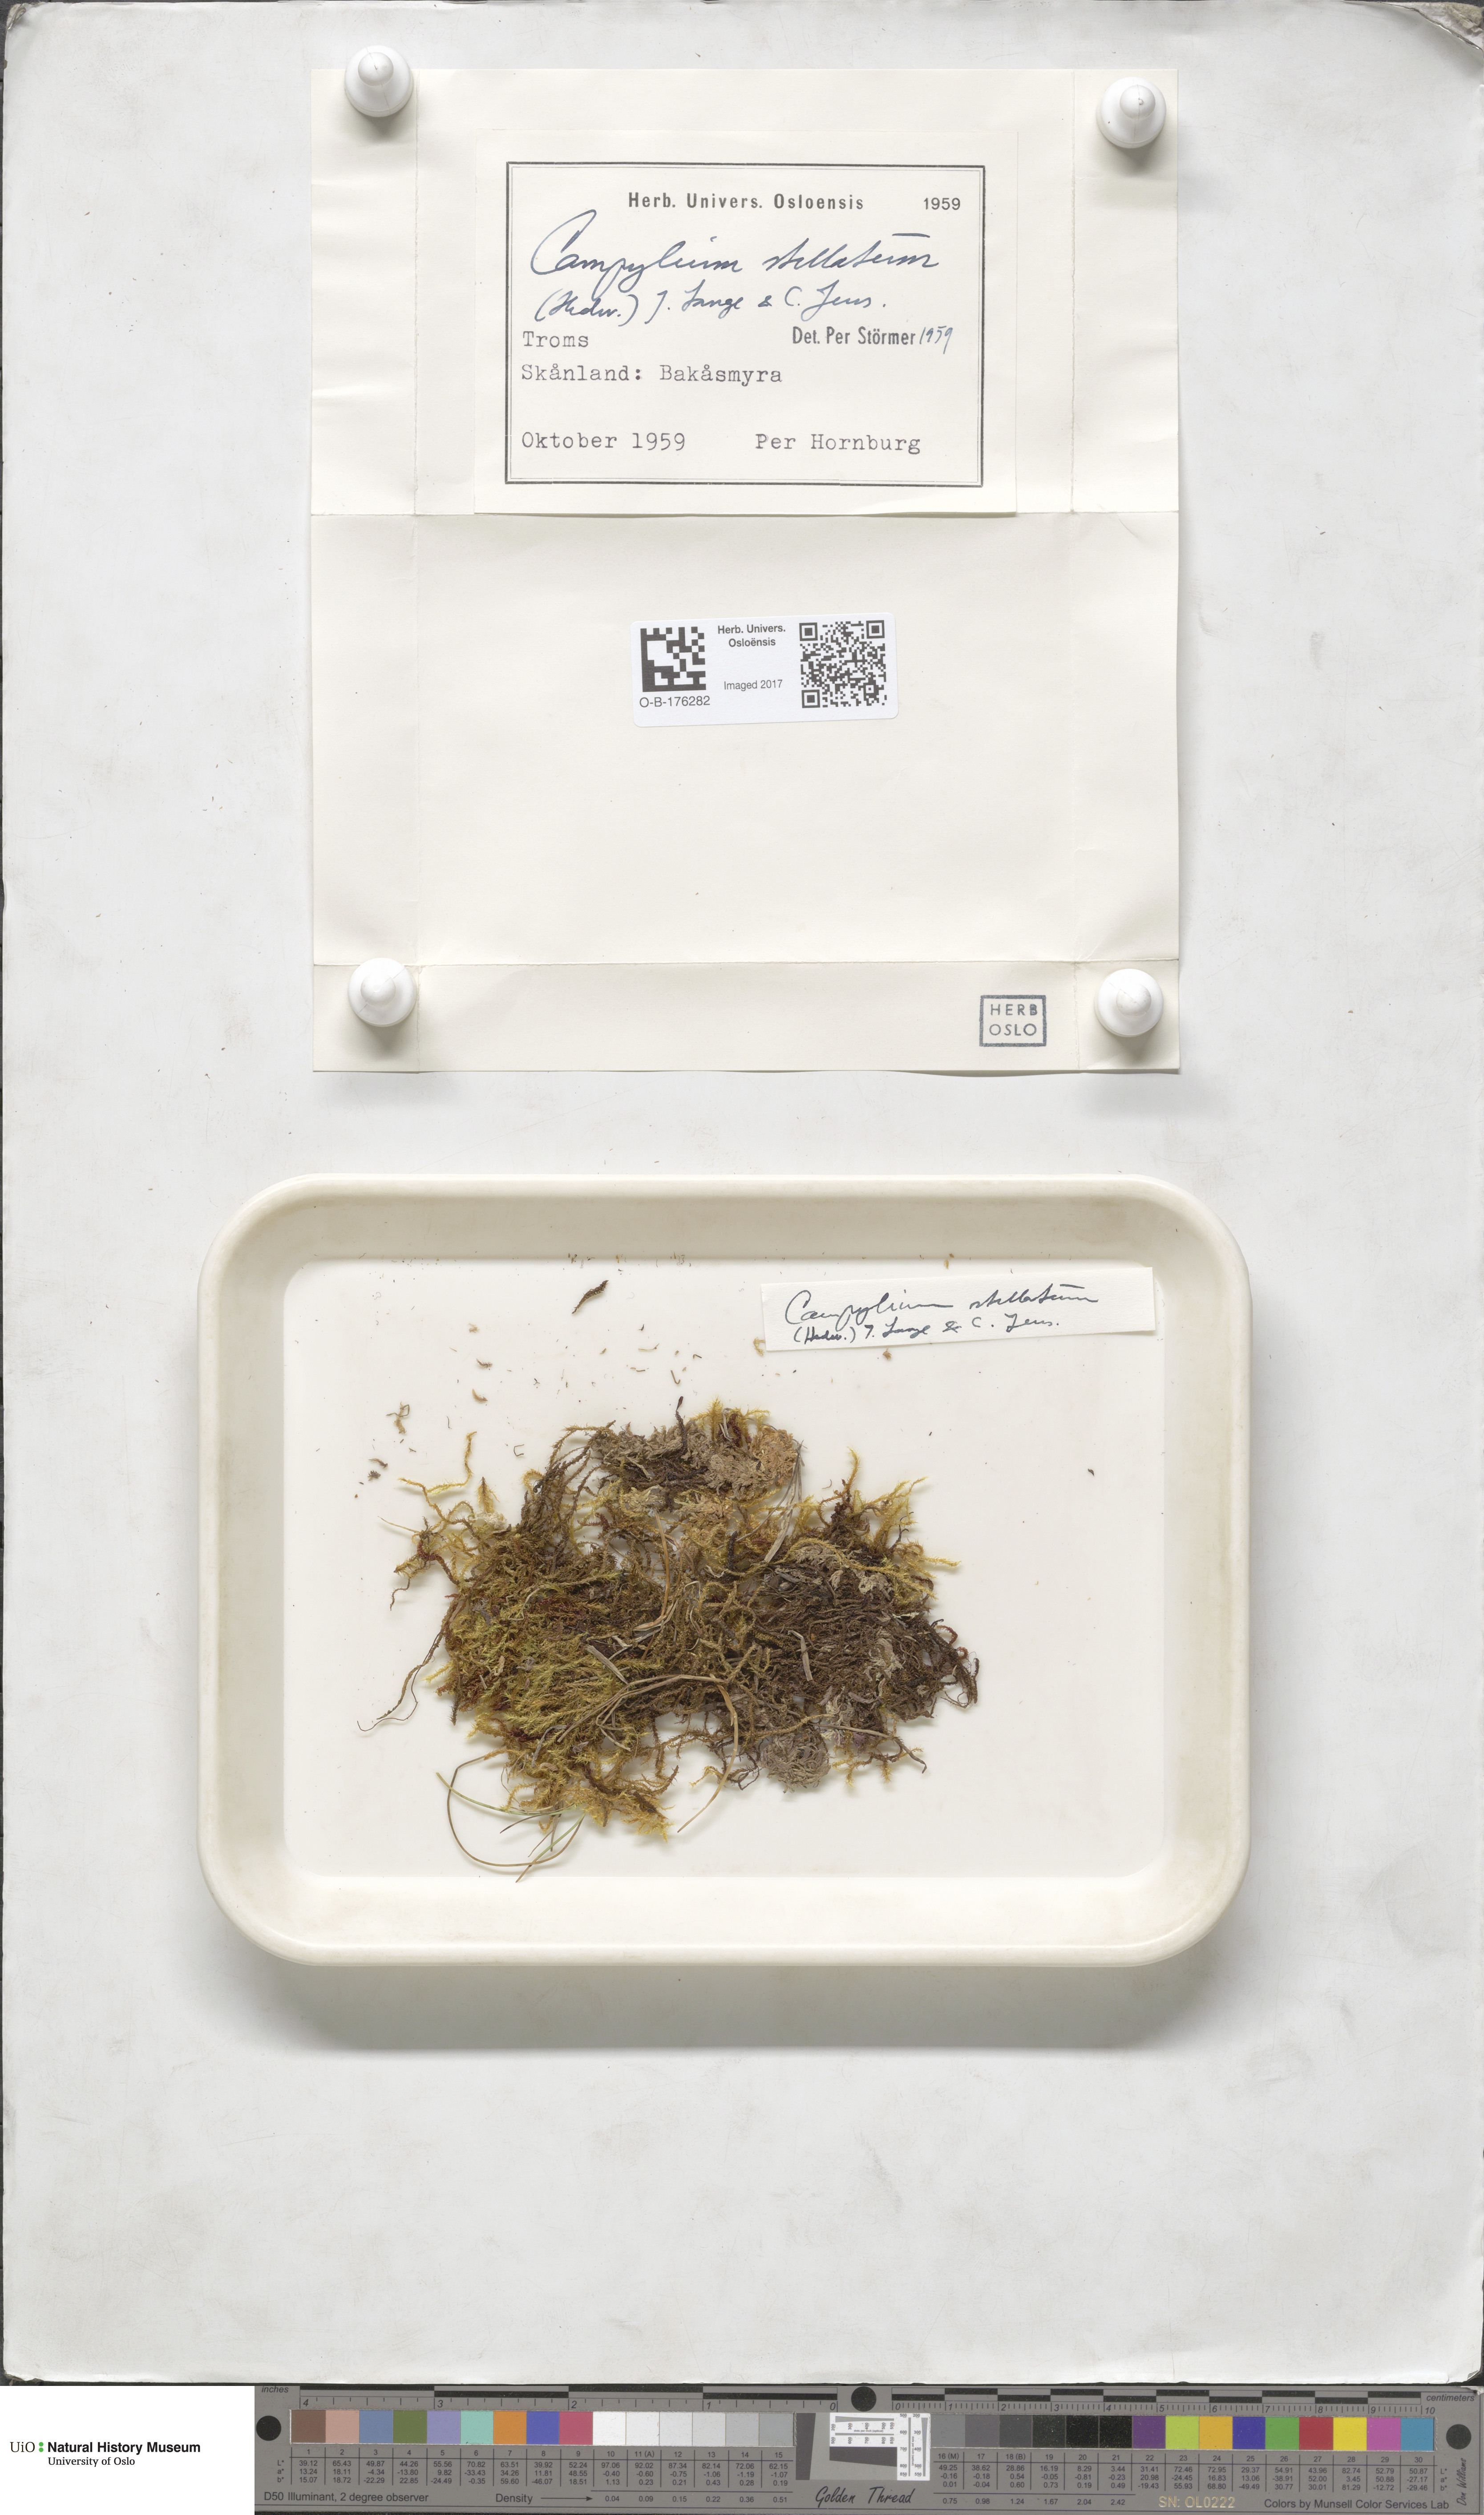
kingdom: Plantae
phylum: Bryophyta
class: Bryopsida
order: Hypnales
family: Amblystegiaceae
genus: Campylium
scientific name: Campylium stellatum
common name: Yellow starry fen moss
